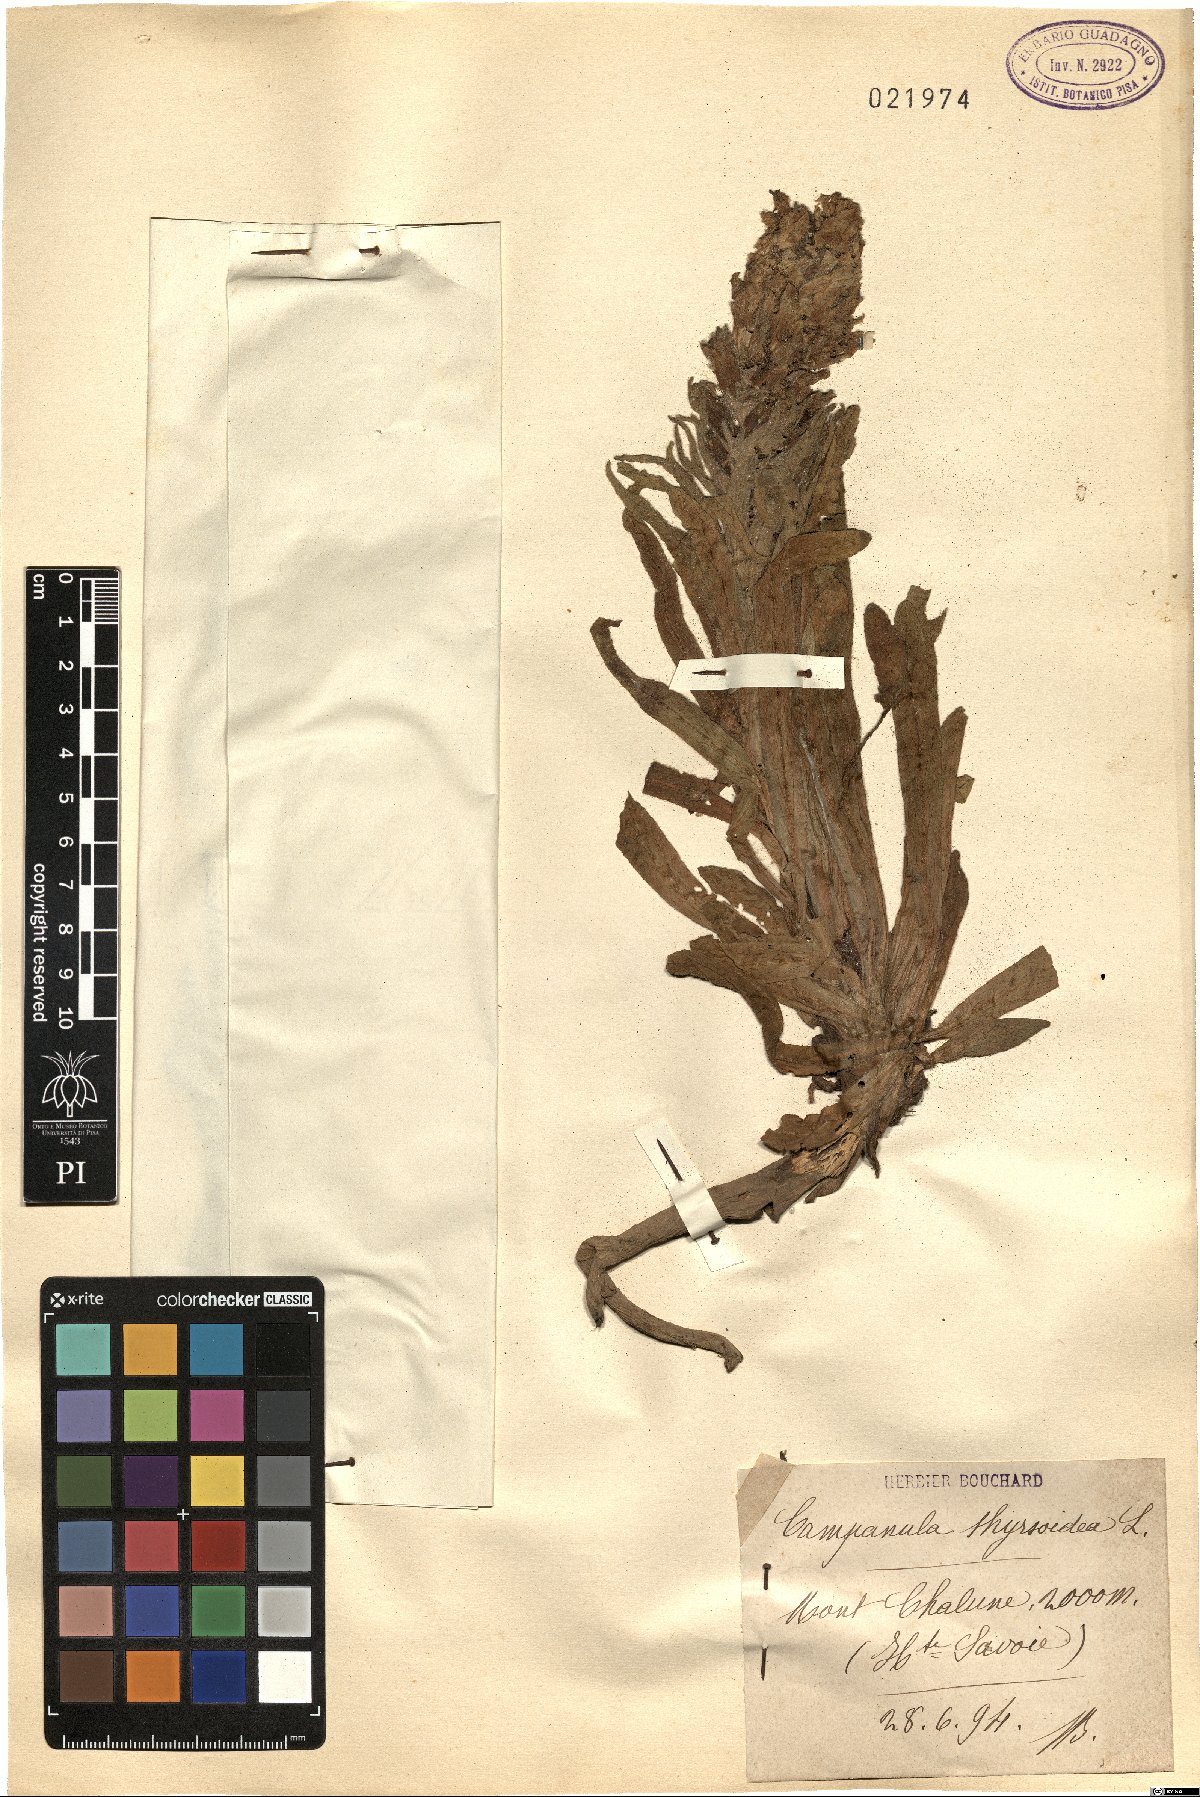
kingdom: Plantae
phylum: Tracheophyta
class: Magnoliopsida
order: Asterales
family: Campanulaceae
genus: Campanula
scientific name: Campanula thyrsoides
